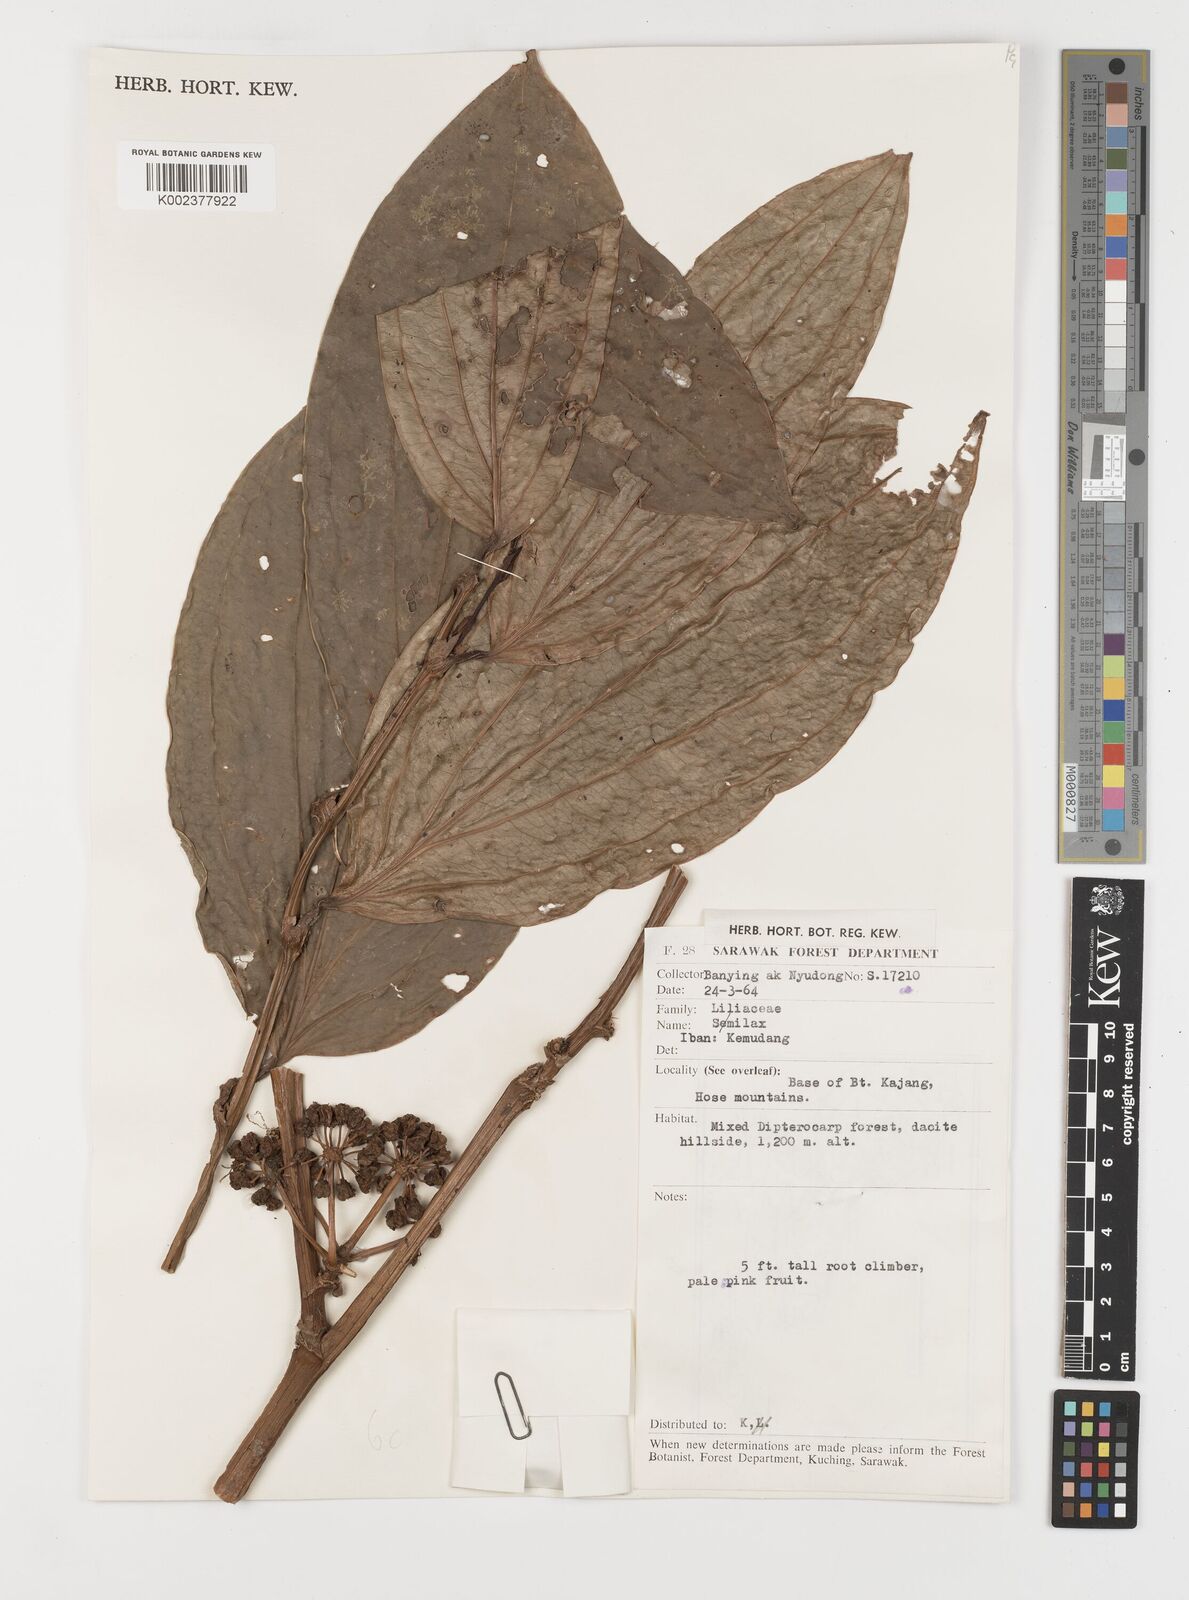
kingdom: Plantae
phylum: Tracheophyta
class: Liliopsida
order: Liliales
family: Smilacaceae
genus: Smilax
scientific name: Smilax
